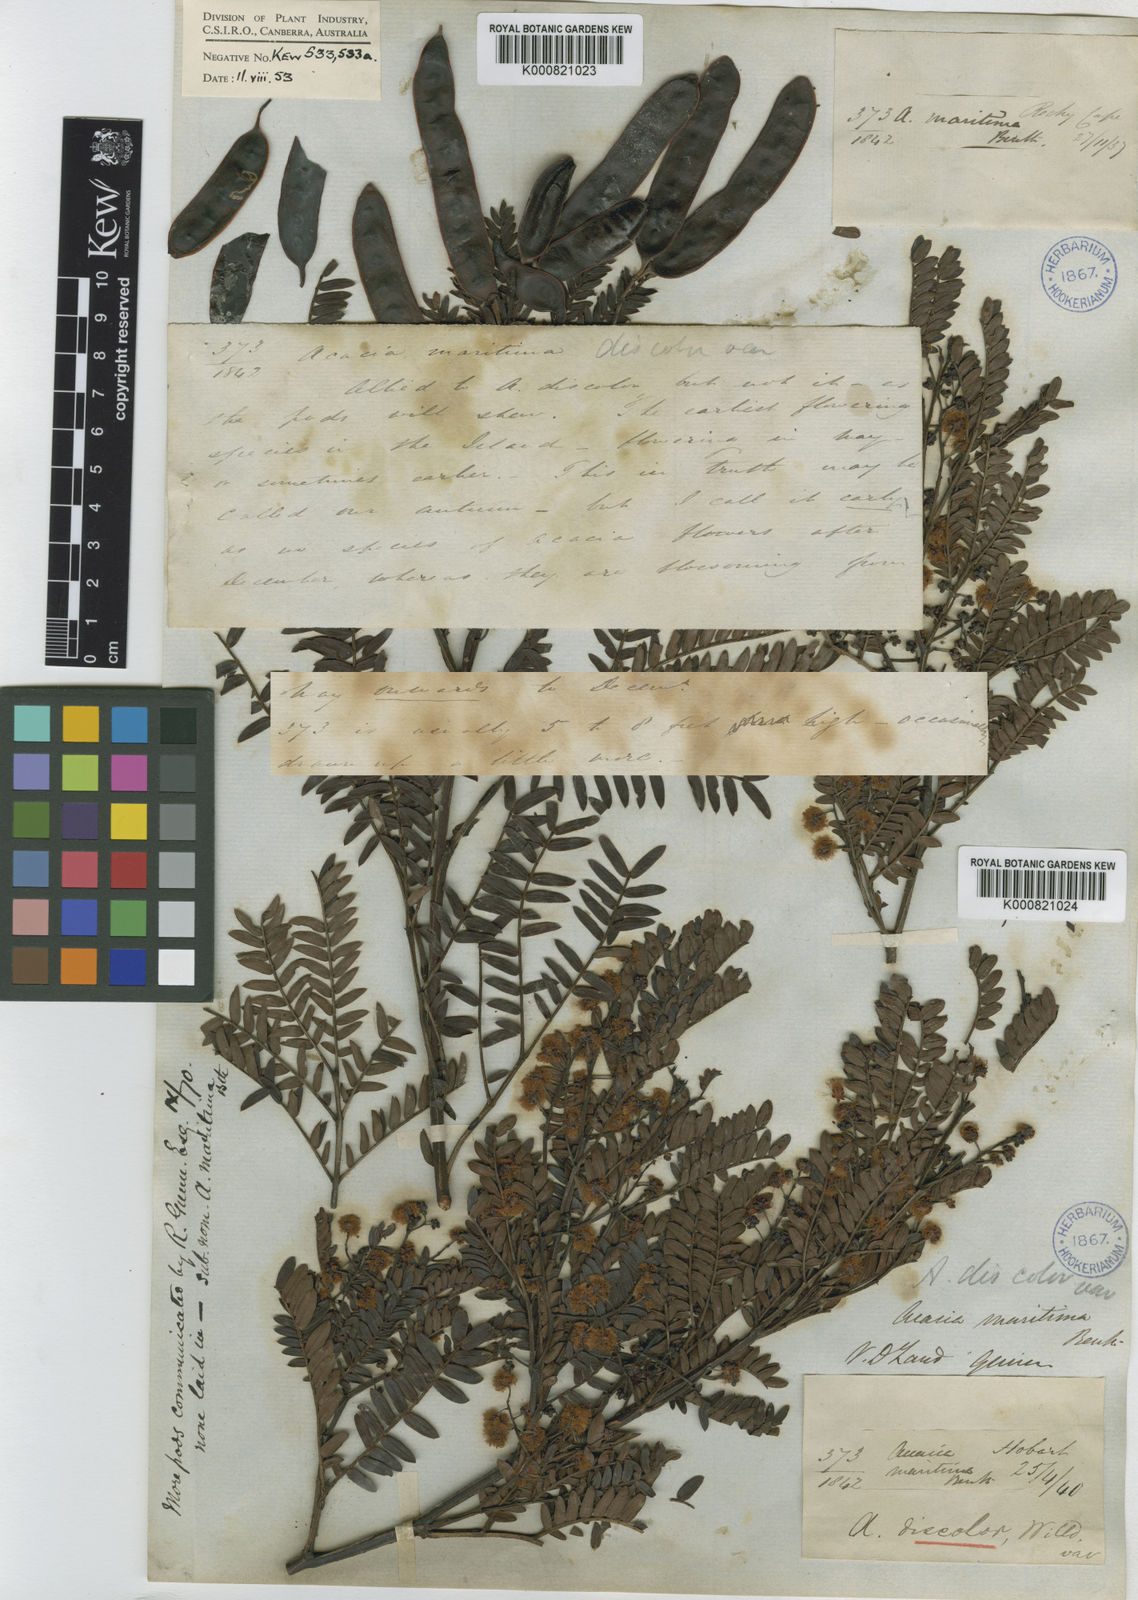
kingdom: Plantae
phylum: Tracheophyta
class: Magnoliopsida
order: Fabales
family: Fabaceae
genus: Acacia
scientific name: Acacia terminalis
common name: Cedar wattle
